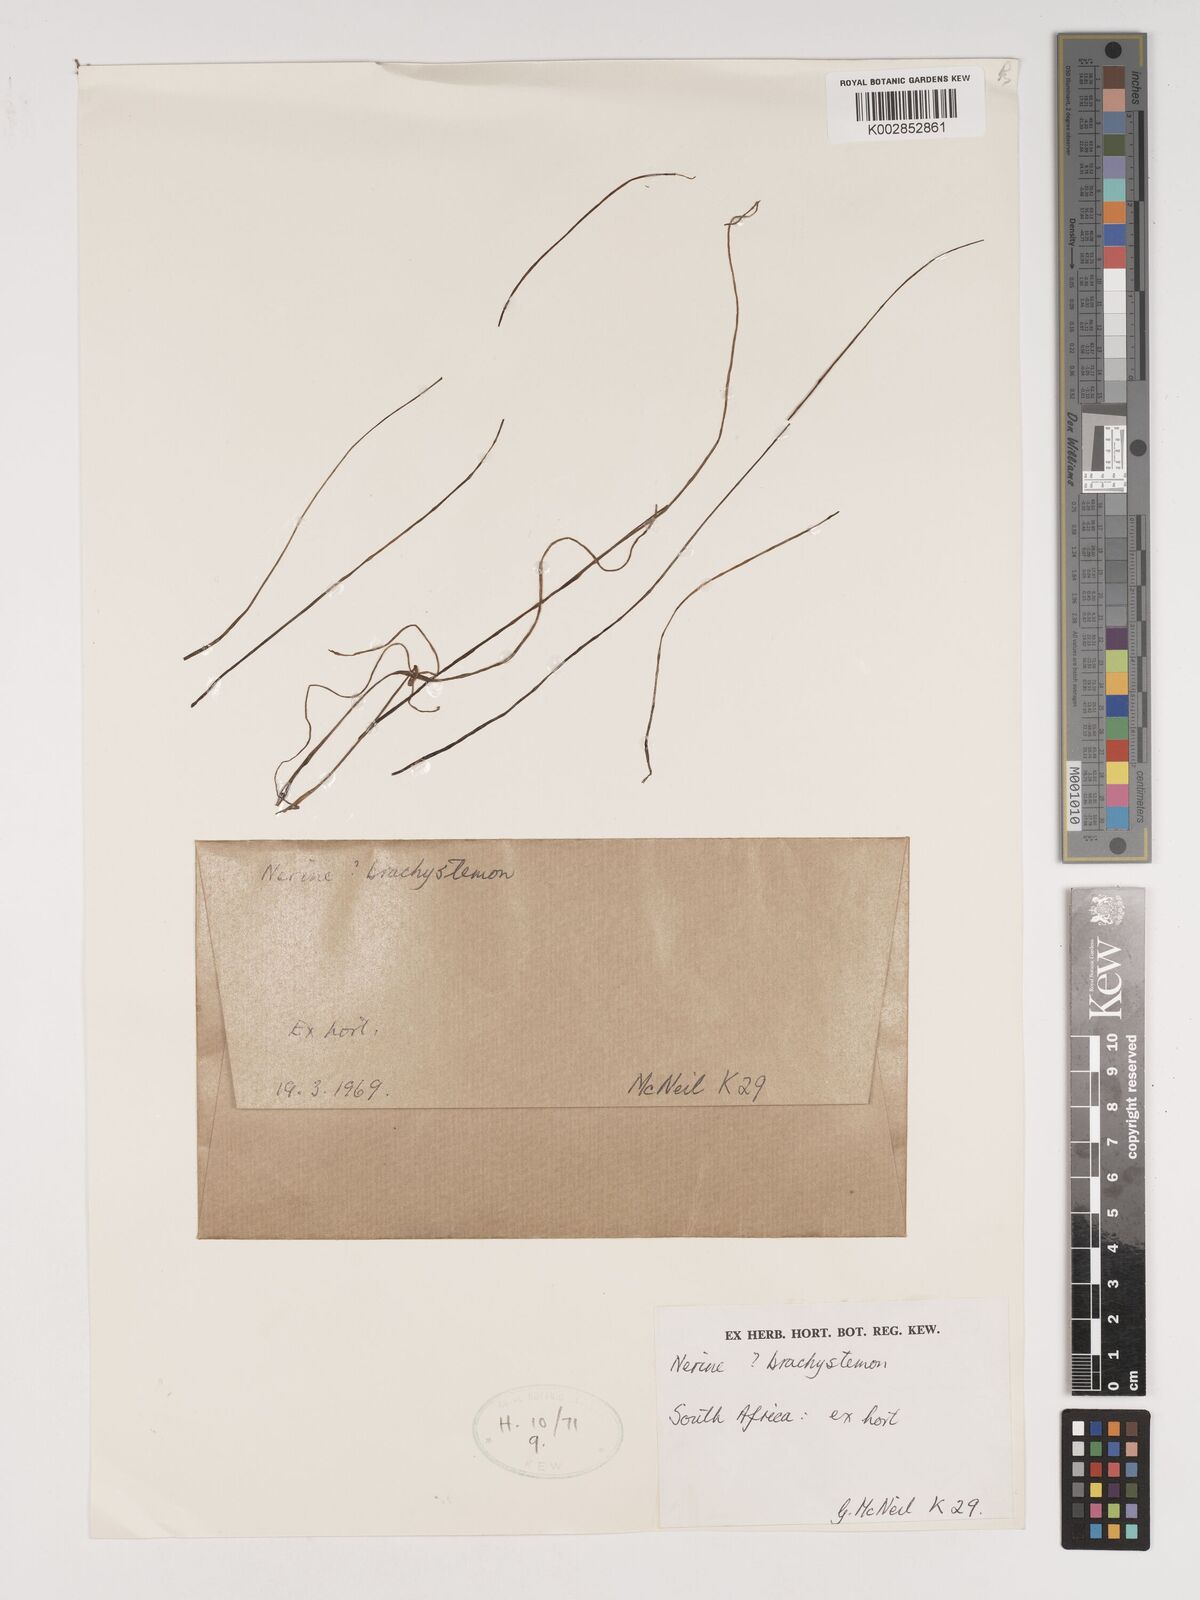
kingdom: Plantae
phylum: Tracheophyta
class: Liliopsida
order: Asparagales
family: Amaryllidaceae
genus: Nerine
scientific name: Nerine appendiculata
